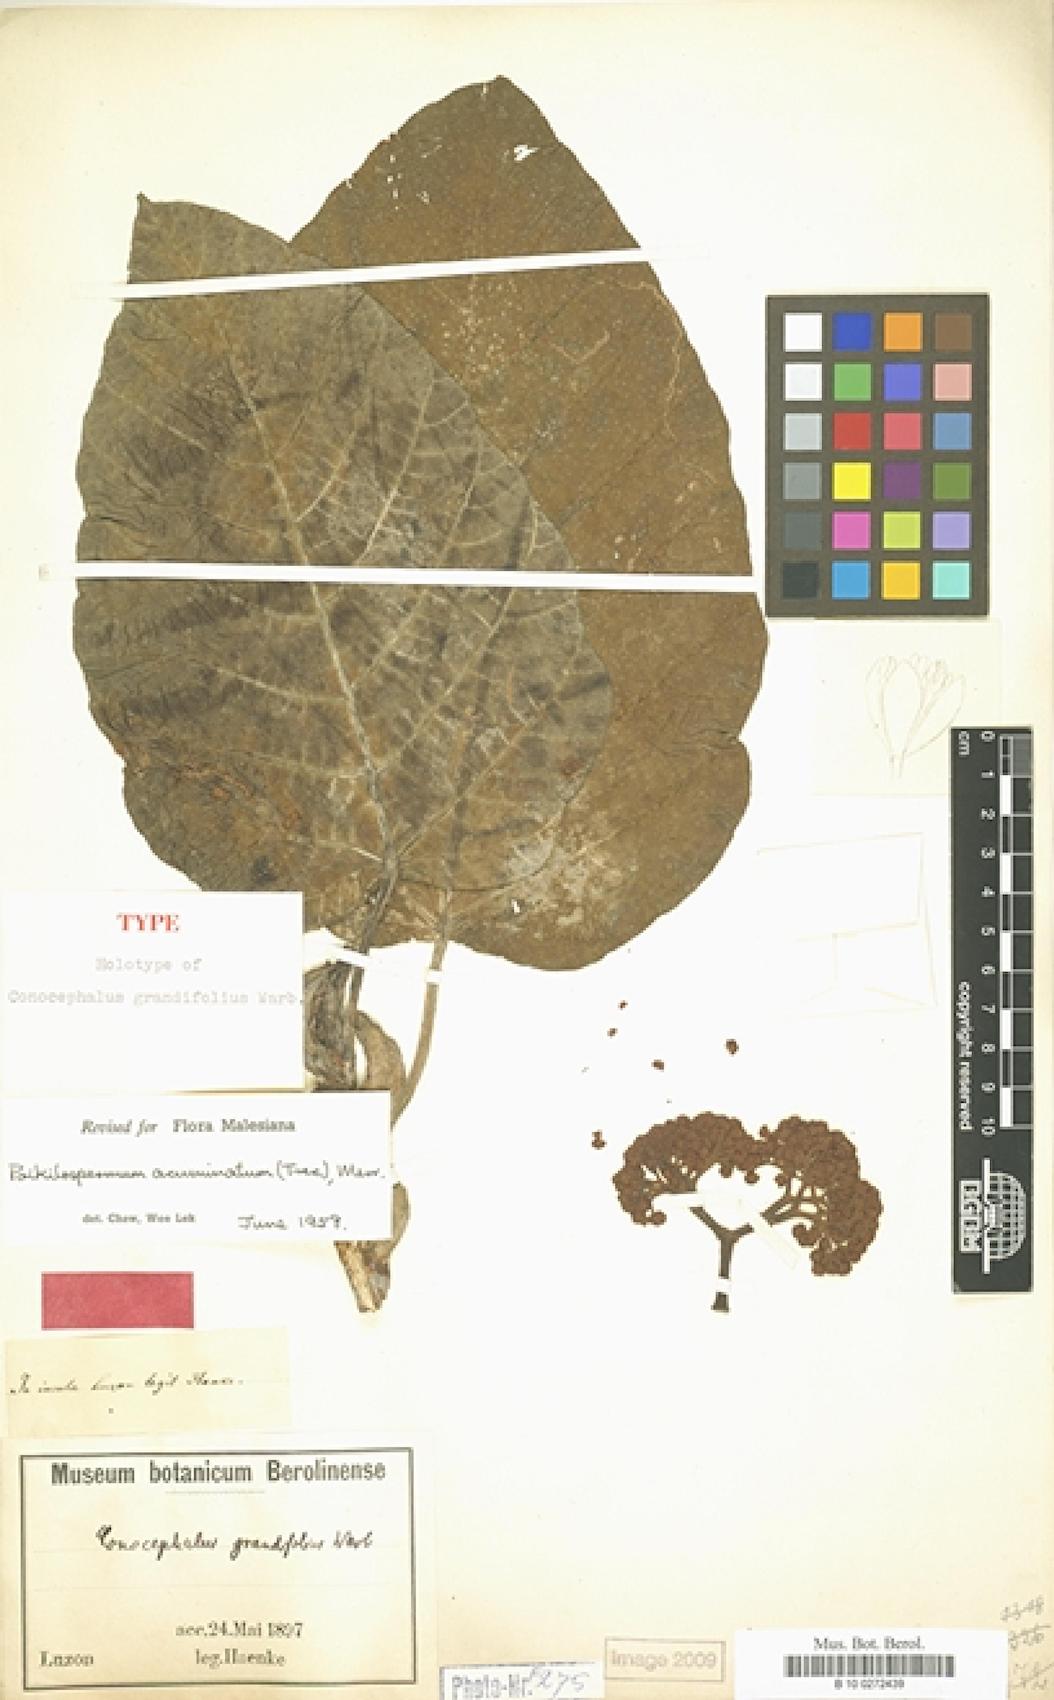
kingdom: Plantae
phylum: Tracheophyta
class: Magnoliopsida
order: Rosales
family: Urticaceae
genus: Poikilospermum
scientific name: Poikilospermum acuminatum
